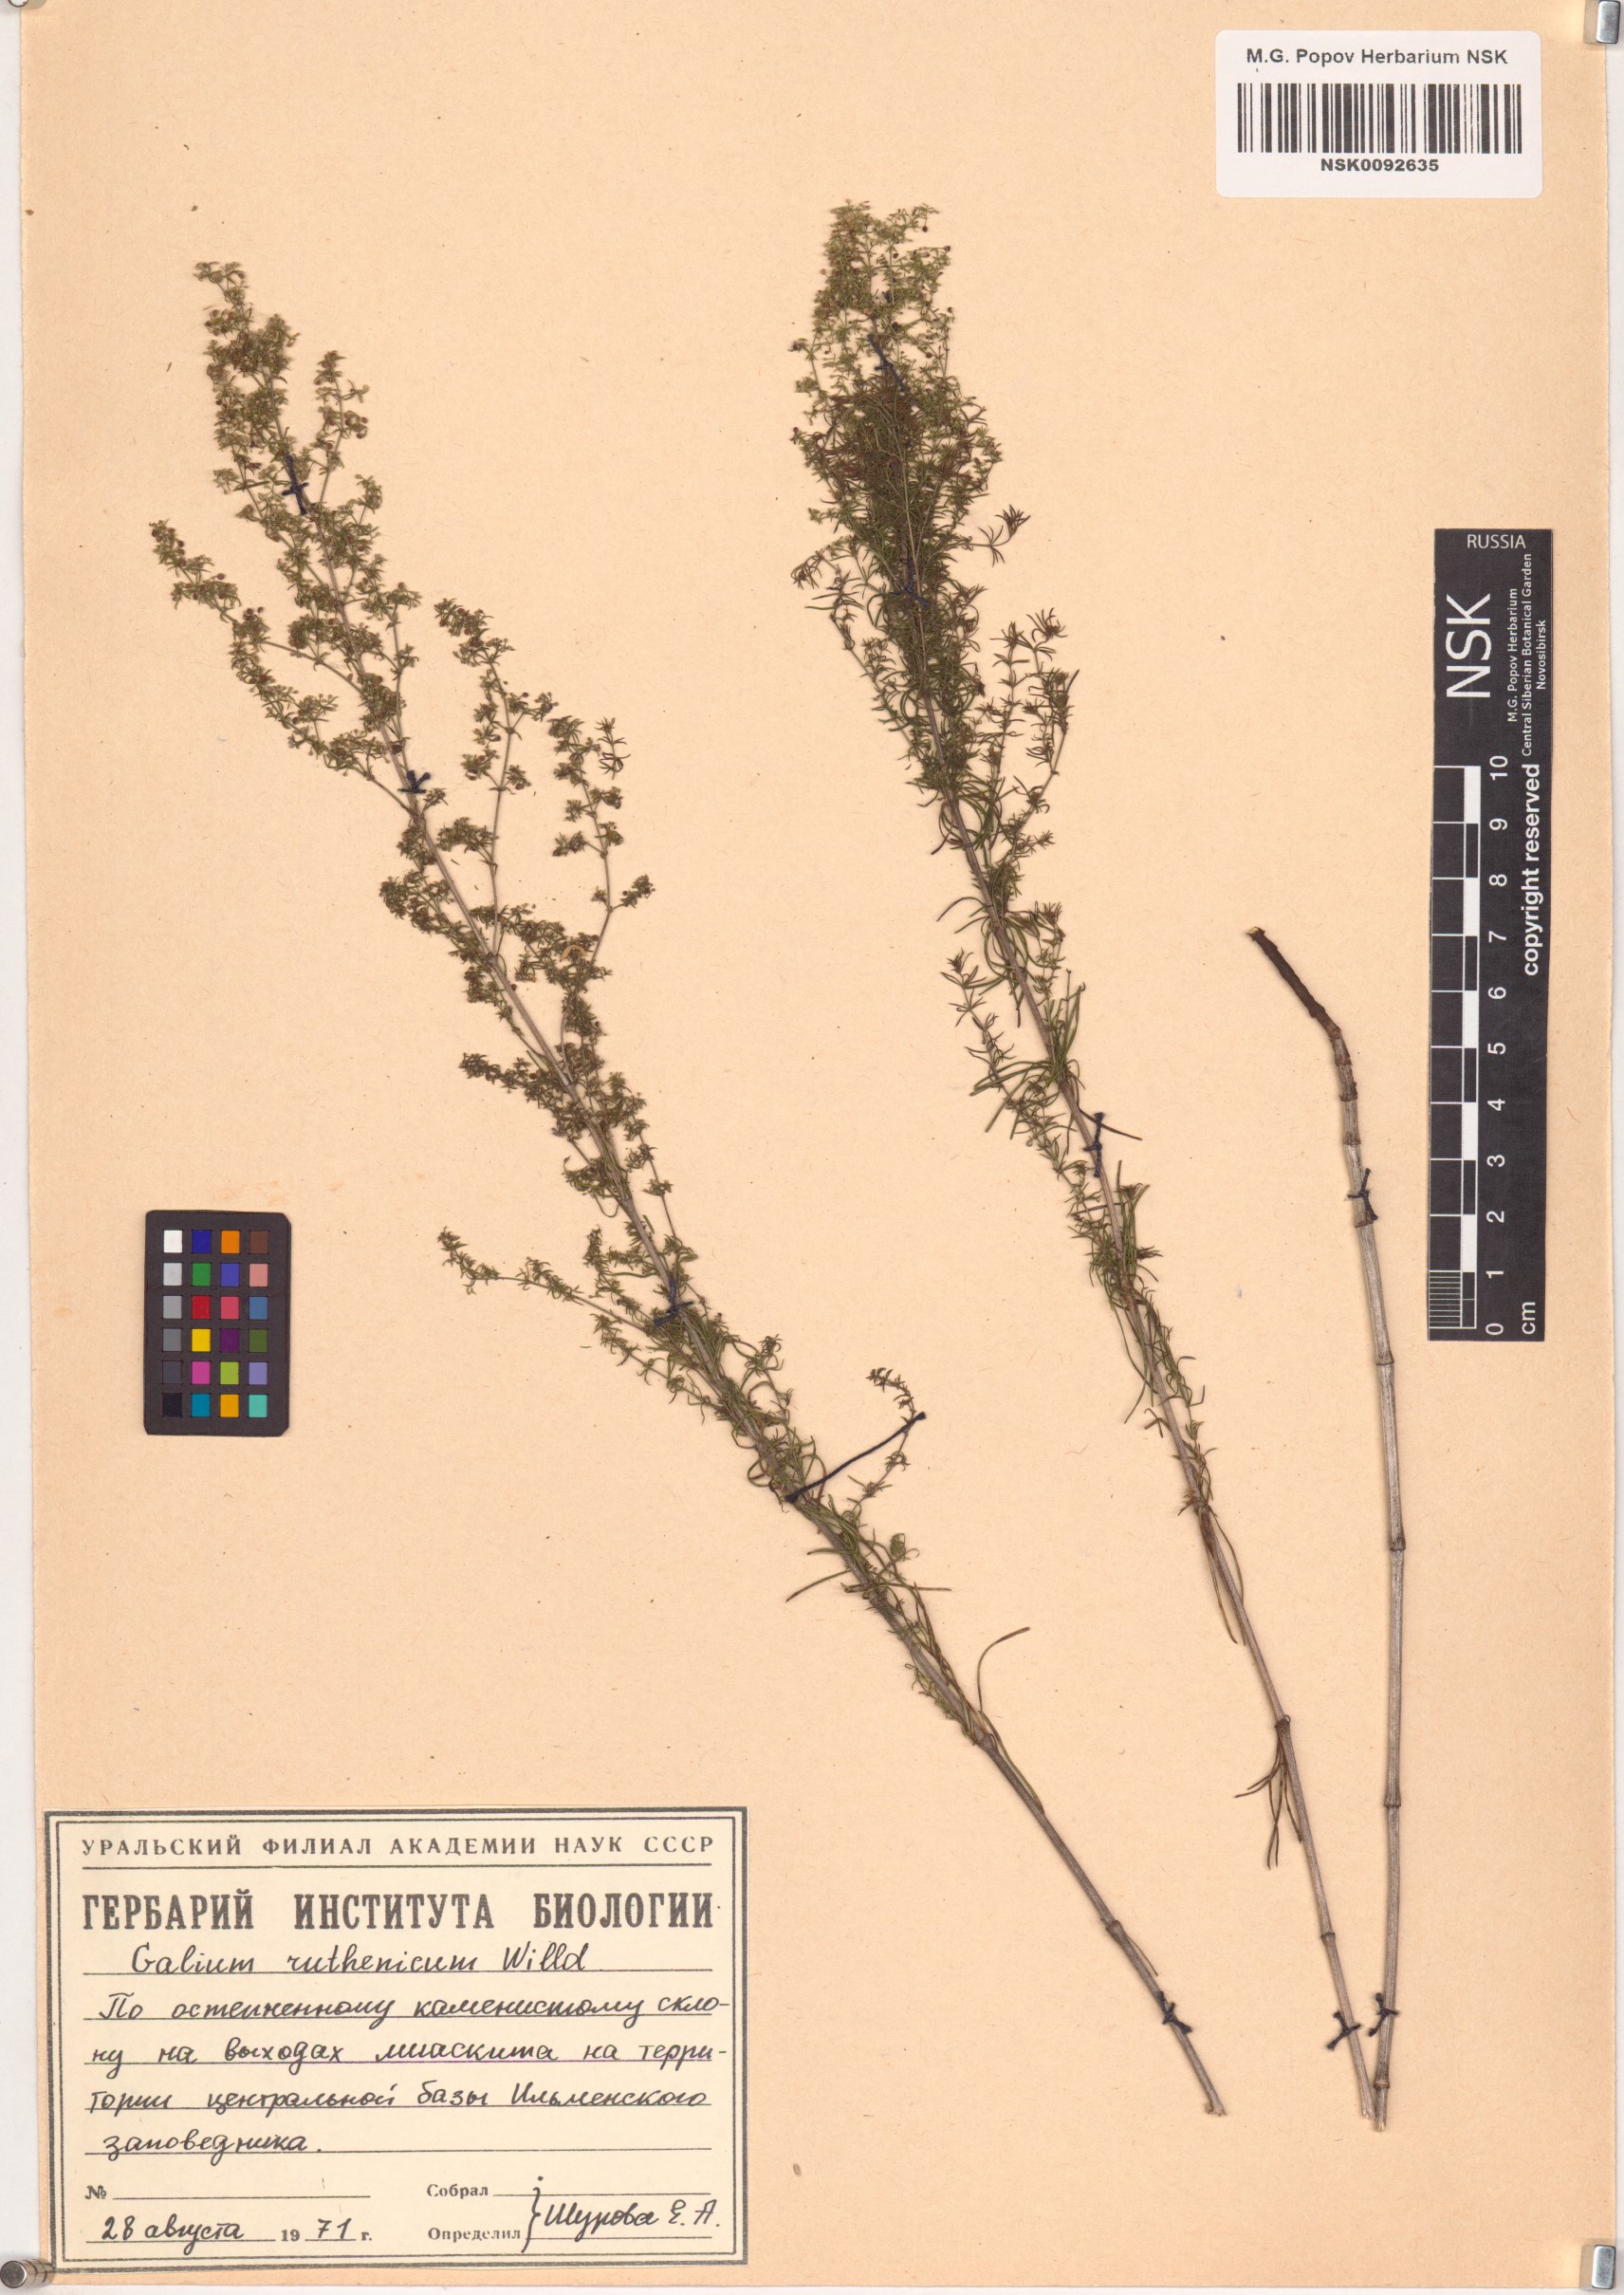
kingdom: Plantae
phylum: Tracheophyta
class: Magnoliopsida
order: Gentianales
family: Rubiaceae
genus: Galium
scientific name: Galium verum
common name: Lady's bedstraw
